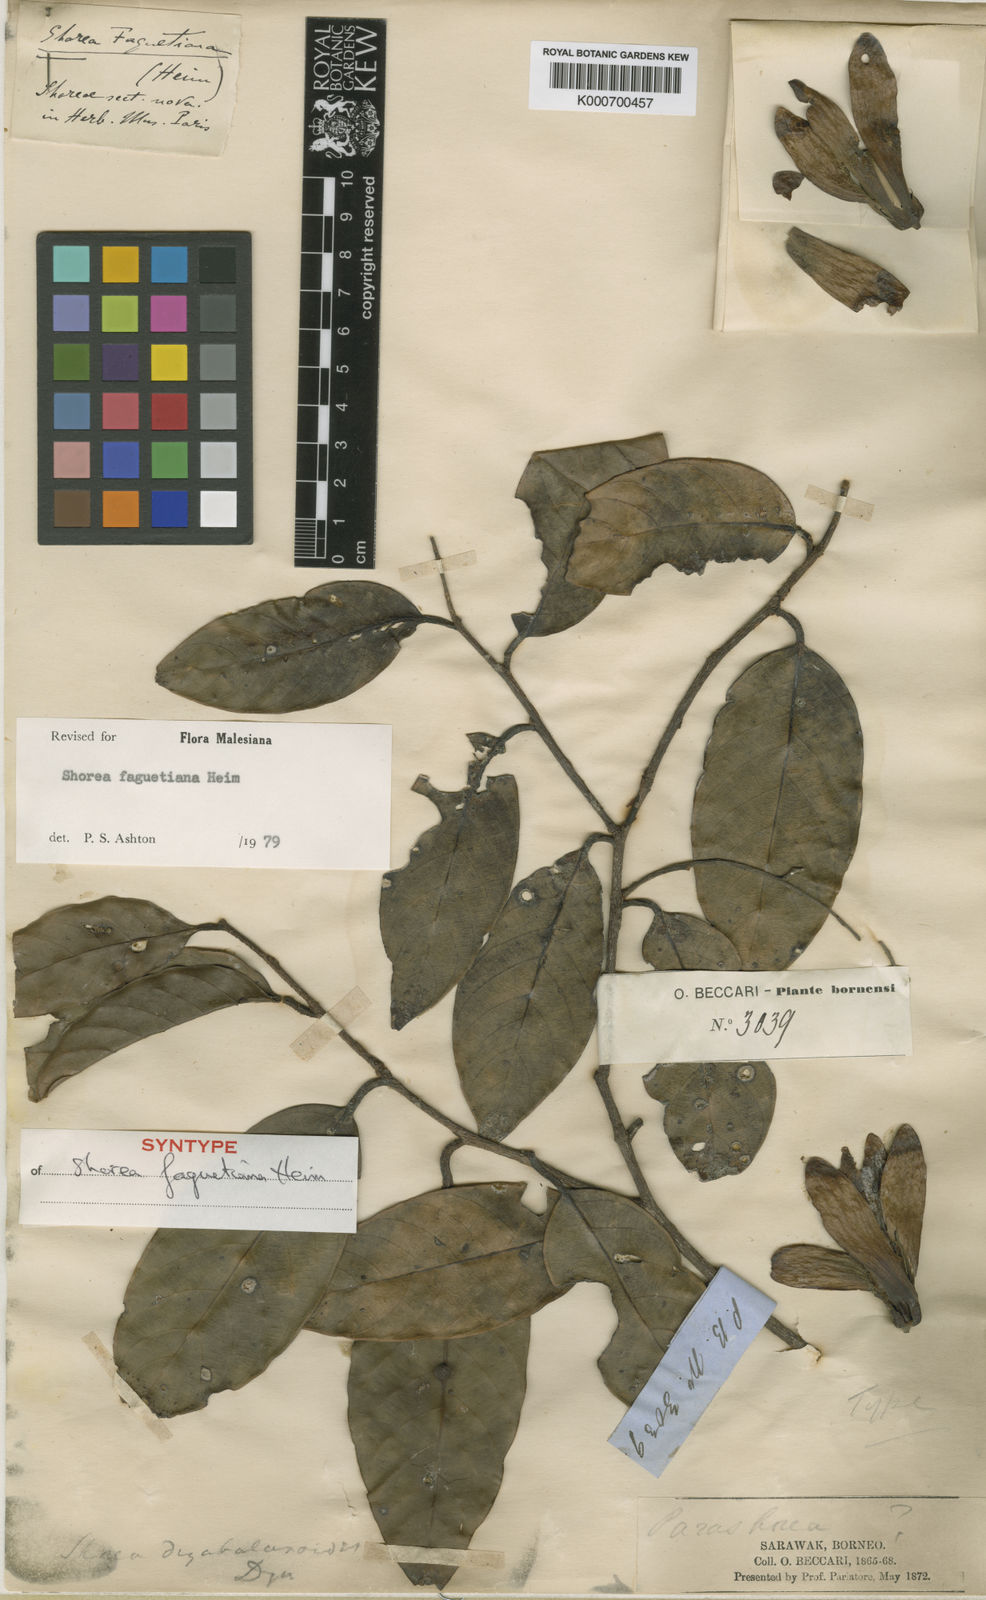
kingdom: Plantae
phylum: Tracheophyta
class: Magnoliopsida
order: Malvales
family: Dipterocarpaceae
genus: Shorea
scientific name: Shorea faguetiana
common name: Yellow meranti
